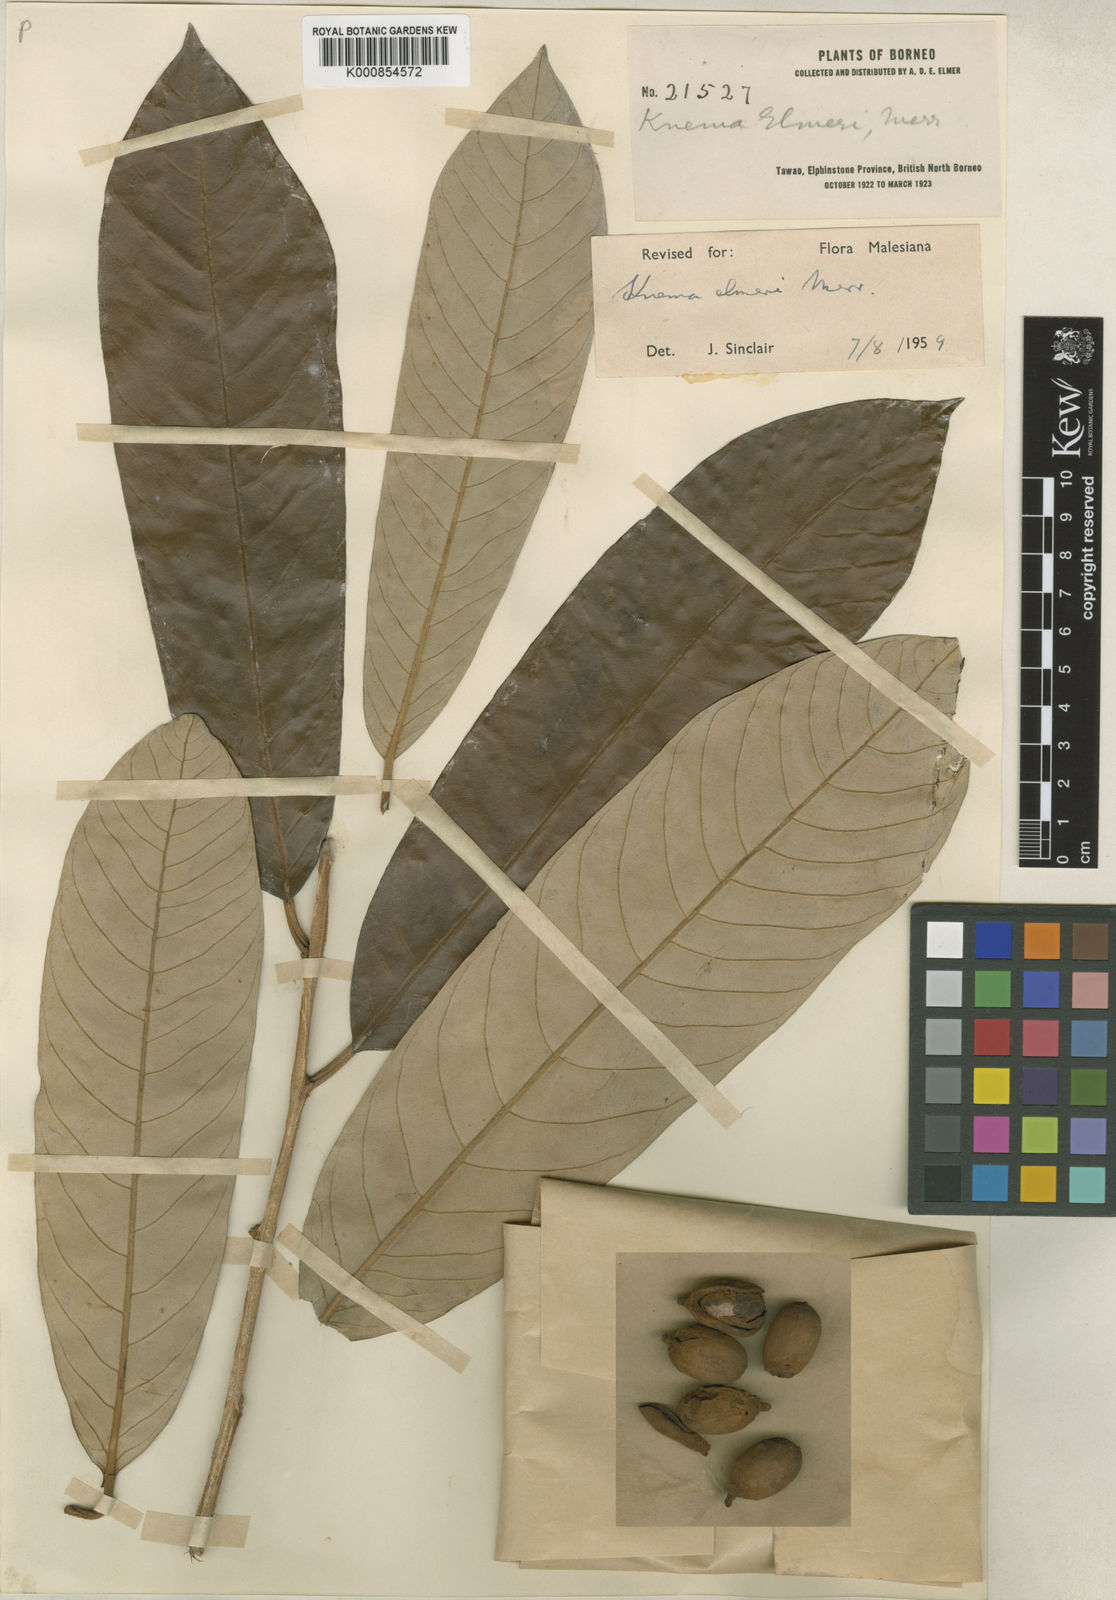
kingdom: Plantae
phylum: Tracheophyta
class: Magnoliopsida
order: Magnoliales
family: Myristicaceae
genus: Knema
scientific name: Knema elmeri
